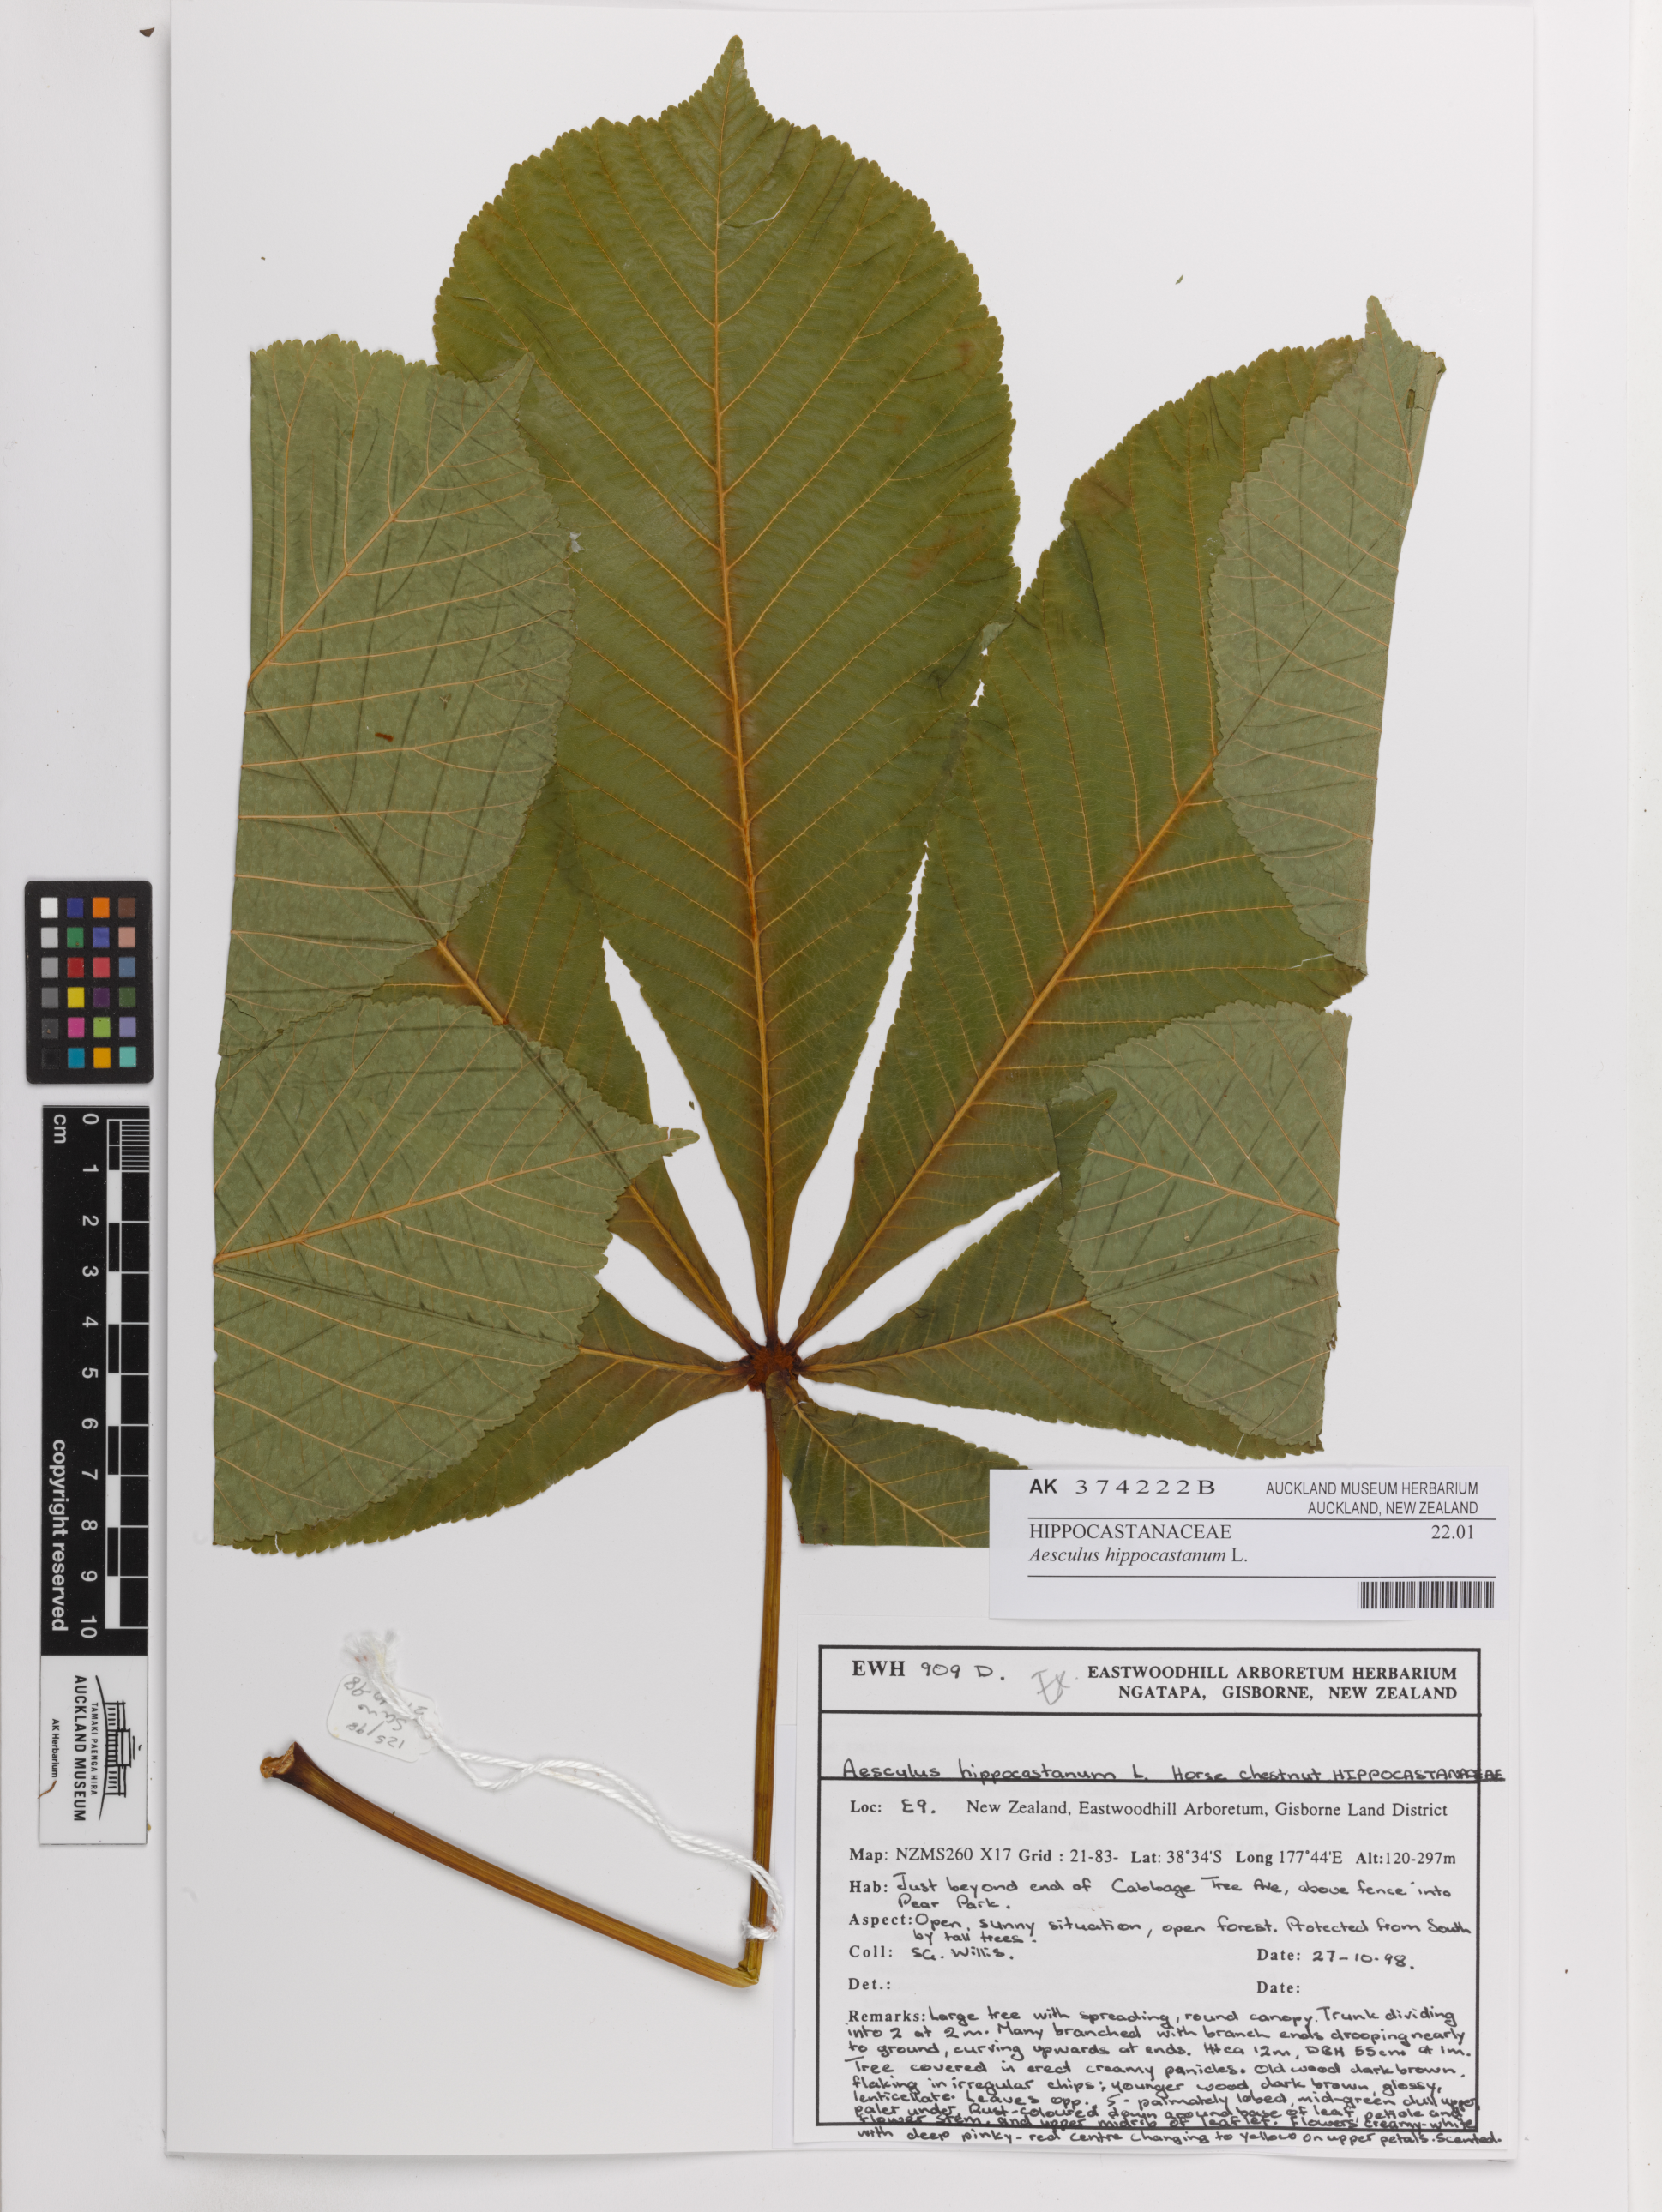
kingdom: Plantae
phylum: Tracheophyta
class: Magnoliopsida
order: Sapindales
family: Sapindaceae
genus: Aesculus
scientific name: Aesculus hippocastanum
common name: Horse-chestnut
